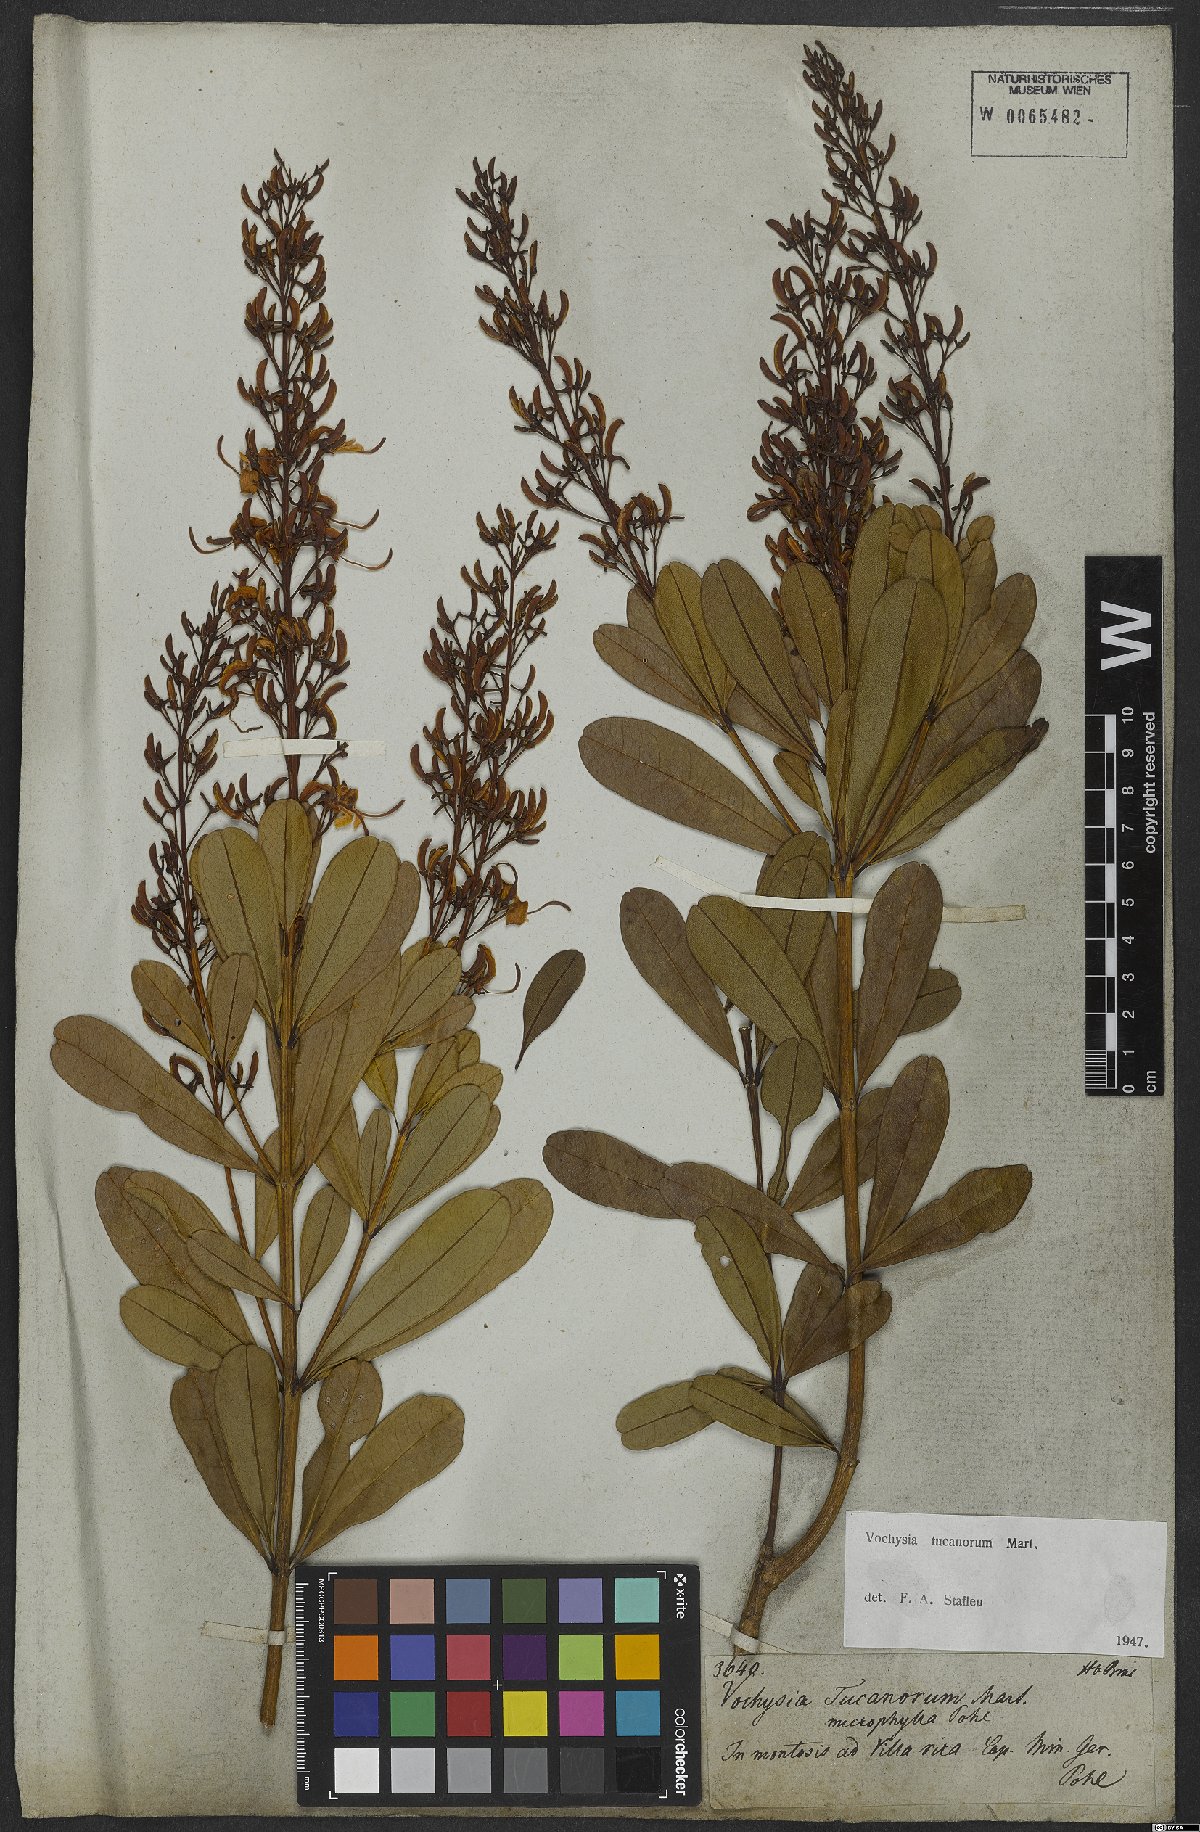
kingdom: Plantae
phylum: Tracheophyta
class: Magnoliopsida
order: Myrtales
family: Vochysiaceae
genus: Vochysia
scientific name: Vochysia tucanorum
